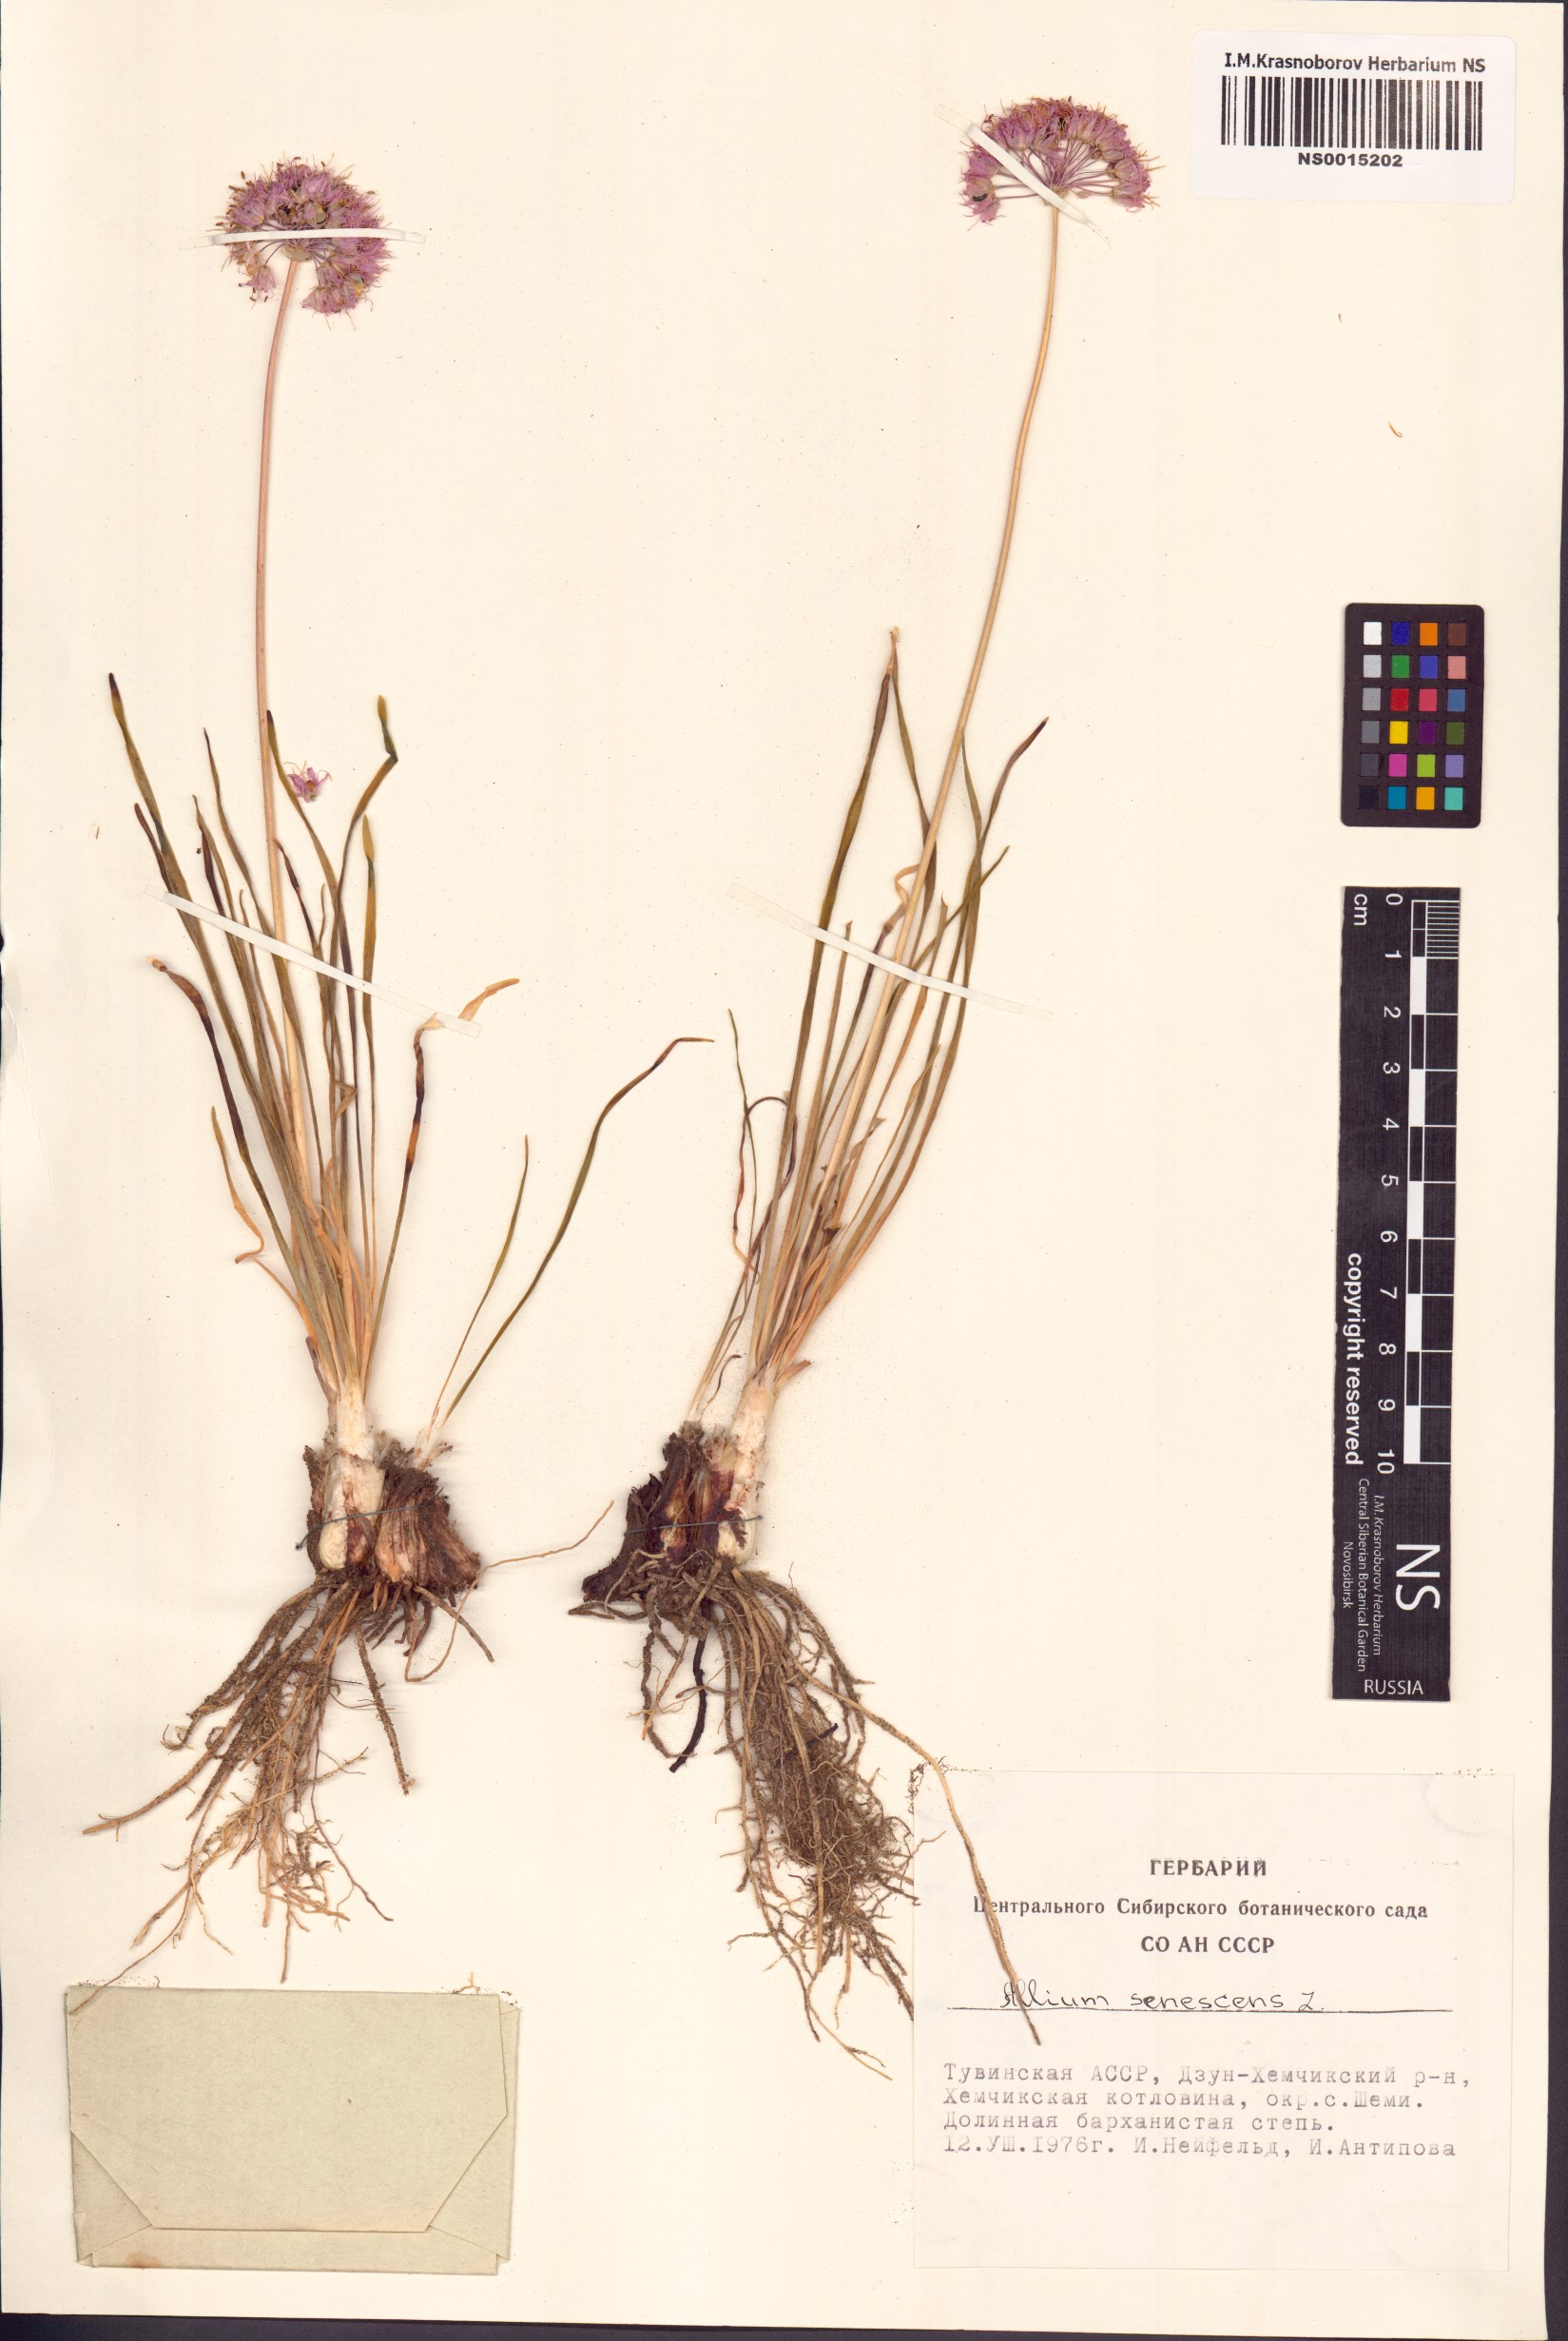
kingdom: Plantae
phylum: Tracheophyta
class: Liliopsida
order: Asparagales
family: Amaryllidaceae
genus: Allium
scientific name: Allium senescens
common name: German garlic
